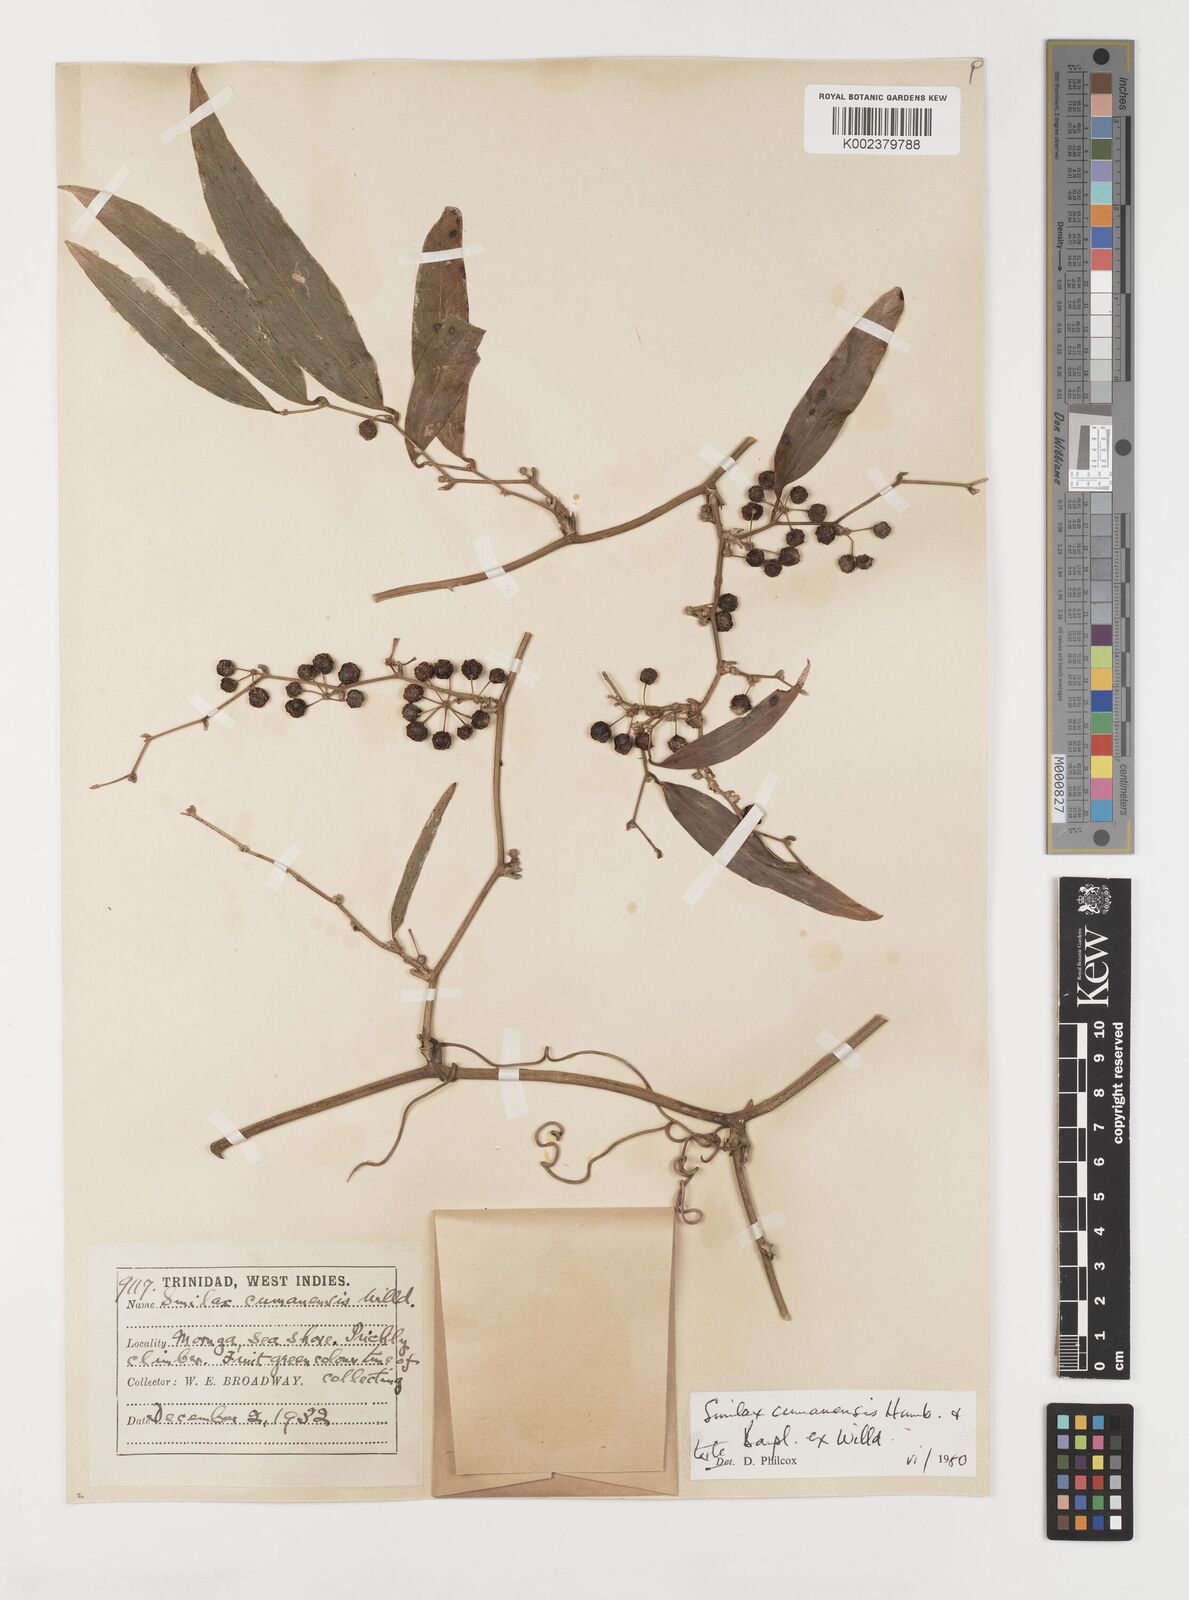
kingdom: Plantae
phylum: Tracheophyta
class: Liliopsida
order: Liliales
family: Smilacaceae
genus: Smilax
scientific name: Smilax oblongata
